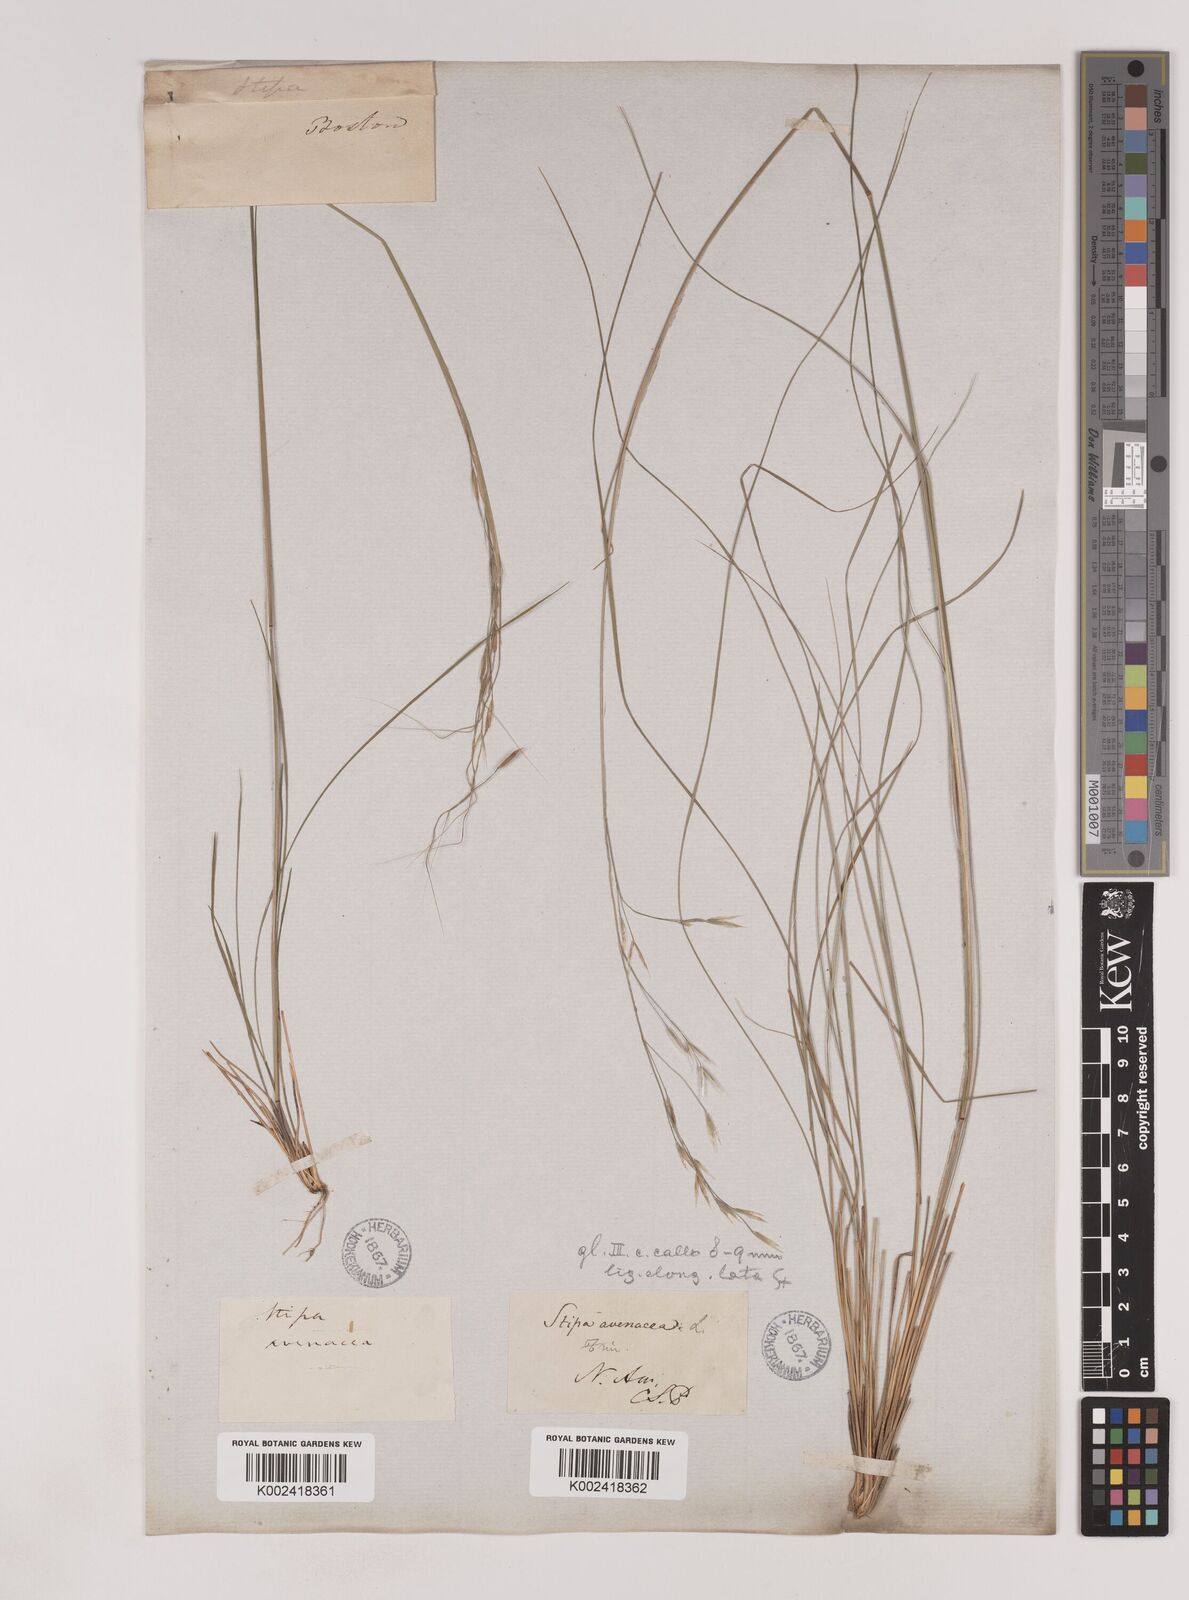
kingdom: Plantae
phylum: Tracheophyta
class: Liliopsida
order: Poales
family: Poaceae
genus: Piptochaetium
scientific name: Piptochaetium avenaceum
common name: Black bunchgrass
